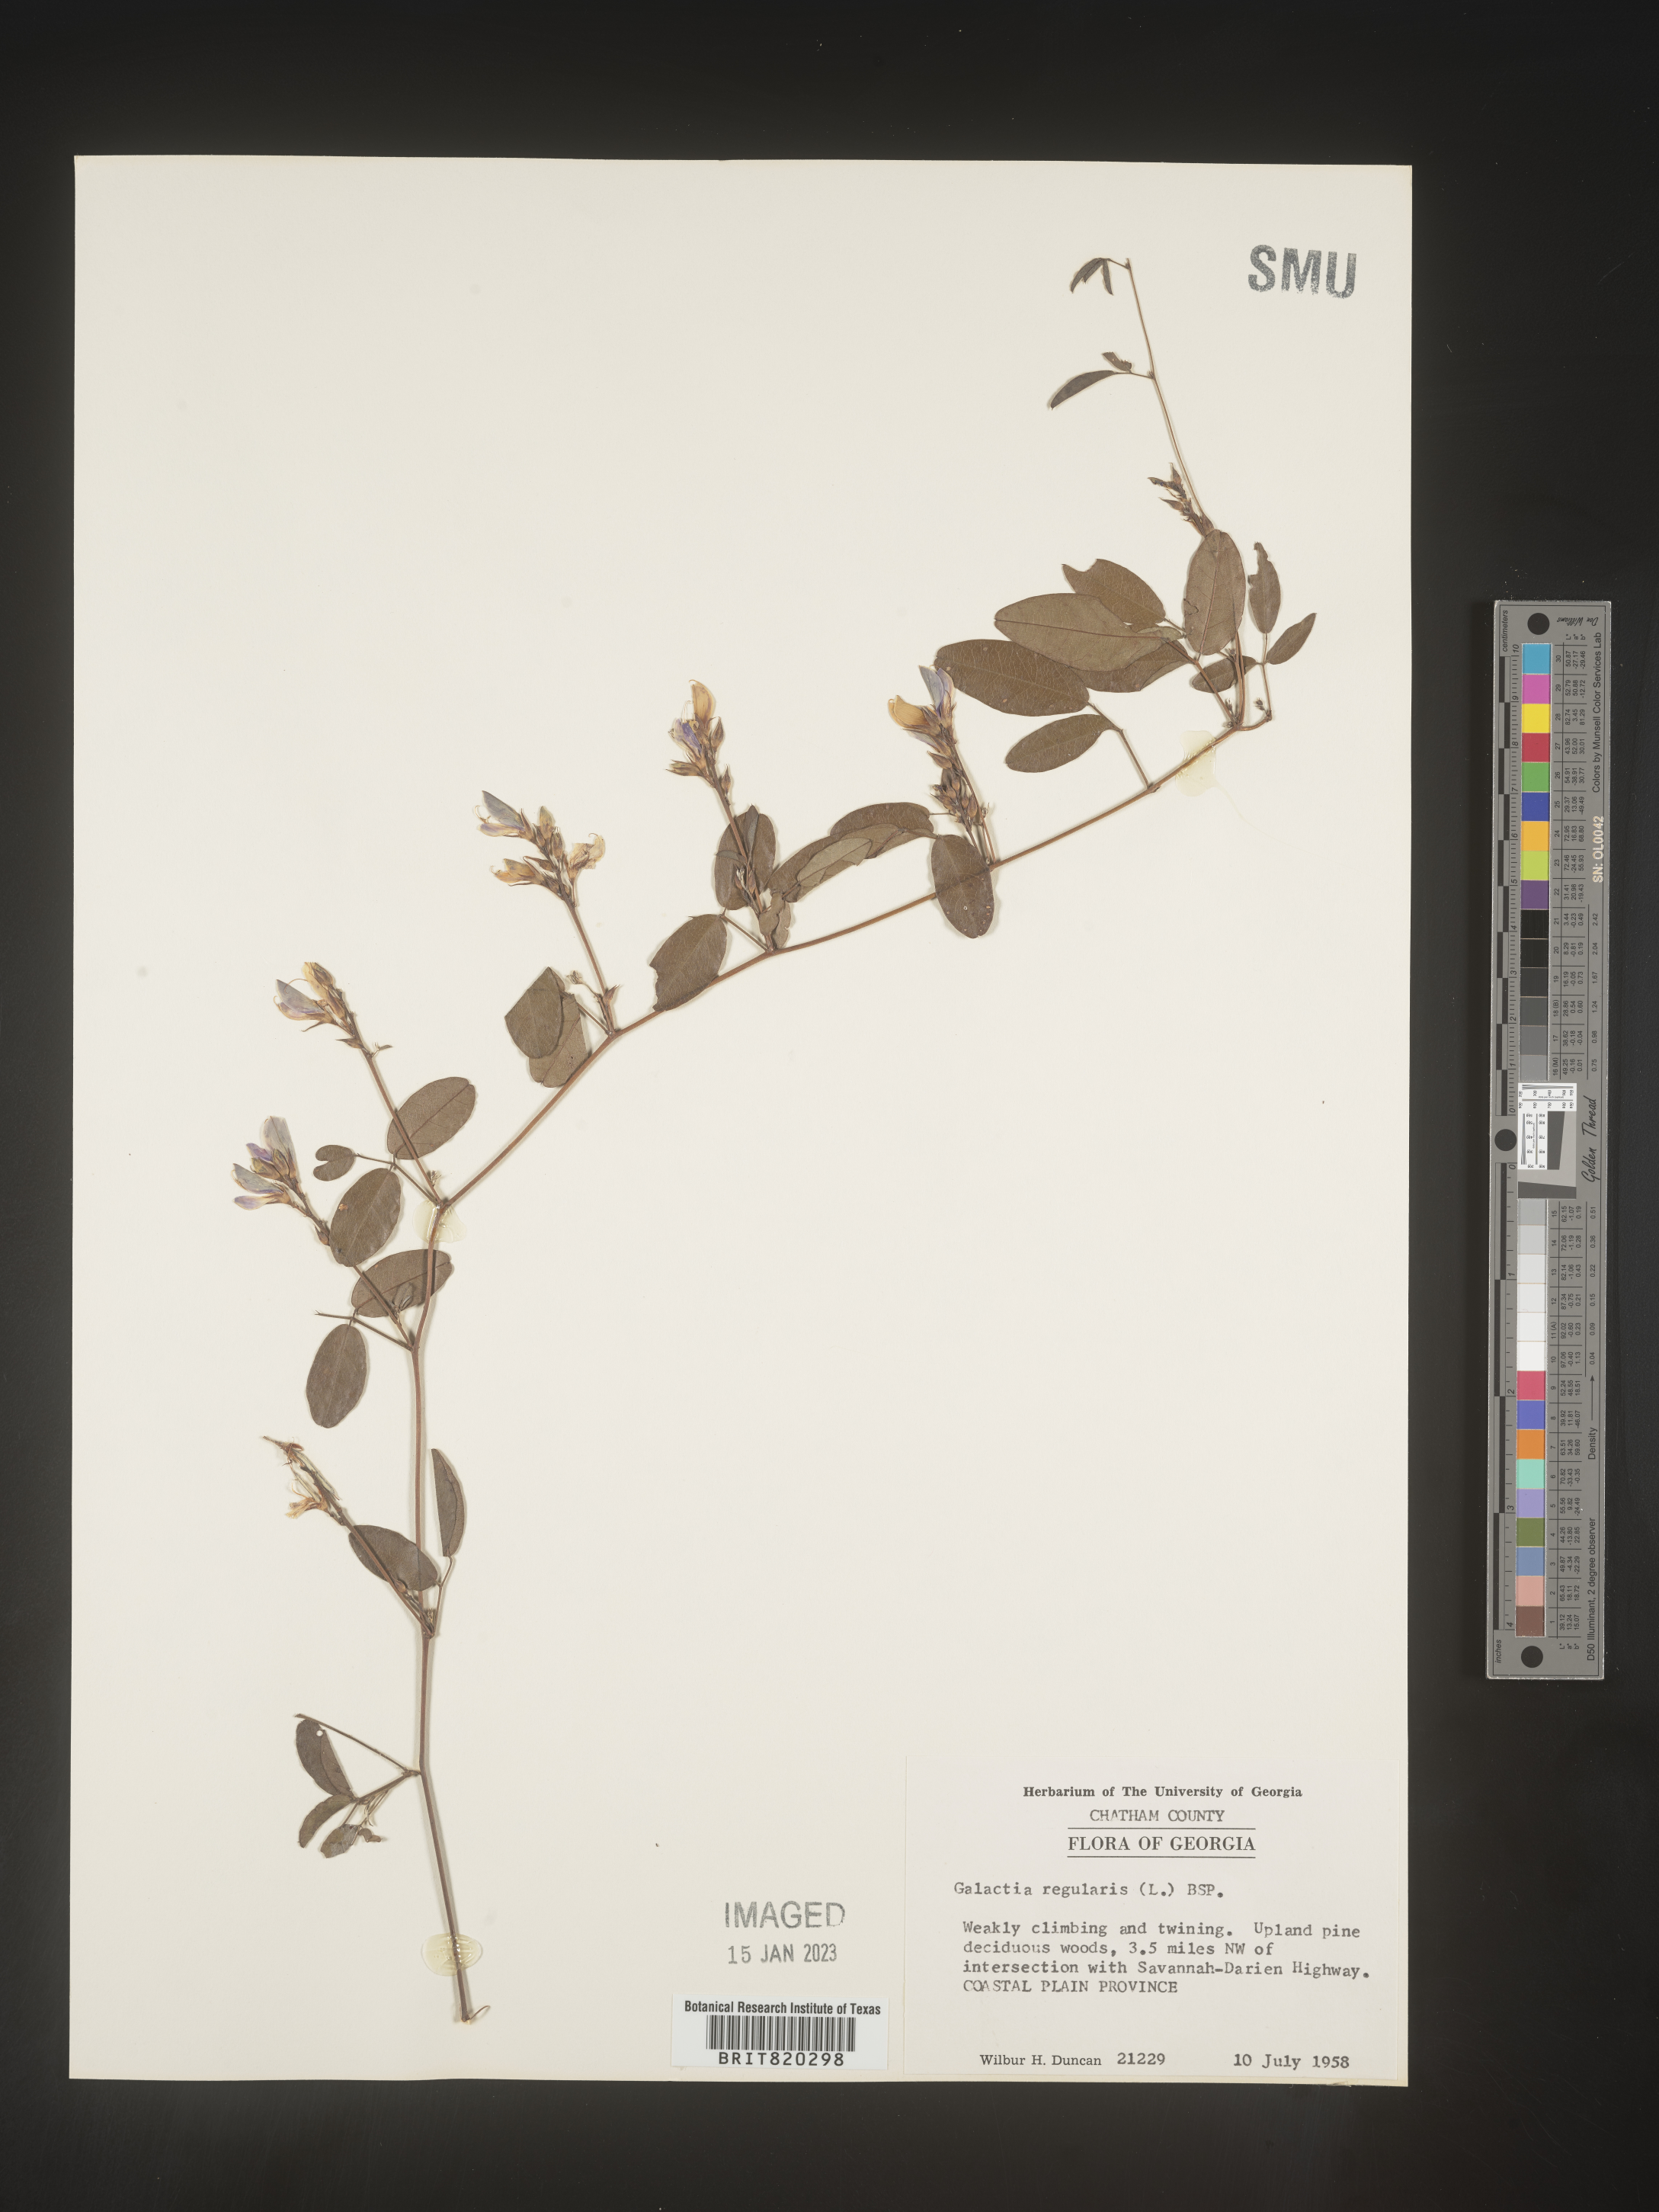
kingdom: Plantae
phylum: Tracheophyta
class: Magnoliopsida
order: Fabales
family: Fabaceae
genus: Galactia
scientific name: Galactia regularis
